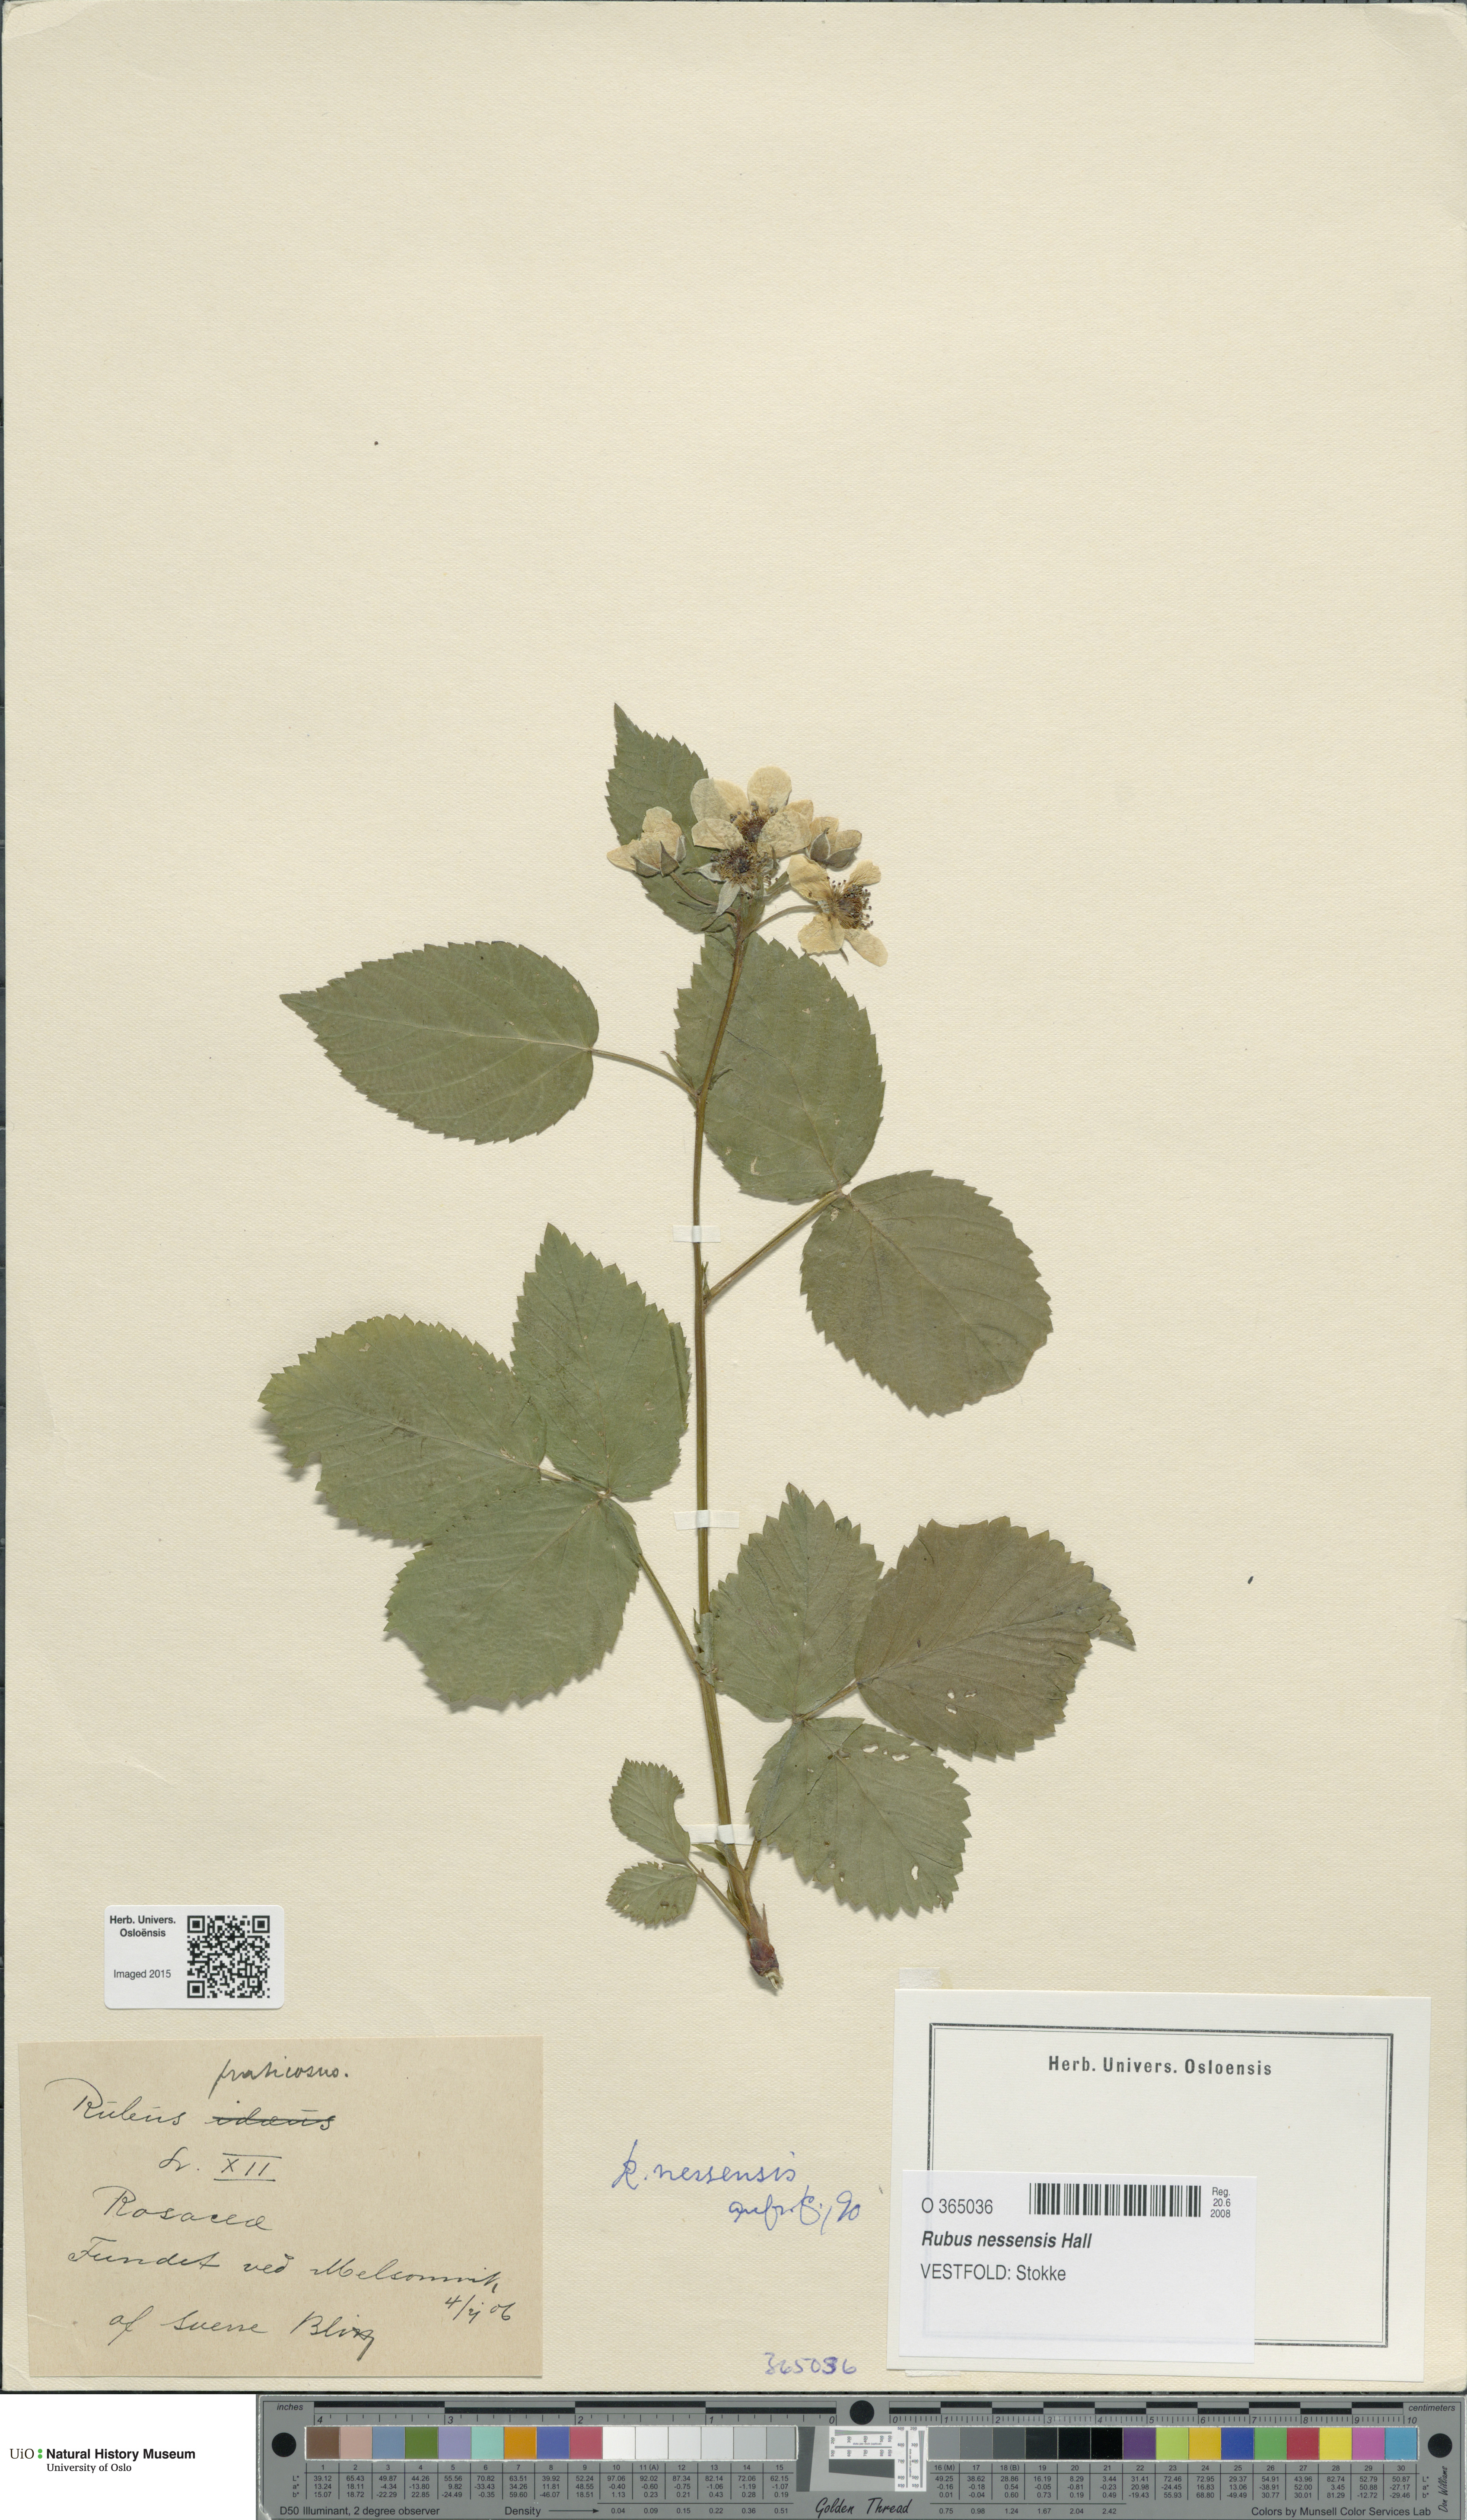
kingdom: Plantae
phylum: Tracheophyta
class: Magnoliopsida
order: Rosales
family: Rosaceae
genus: Rubus
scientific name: Rubus polonicus
